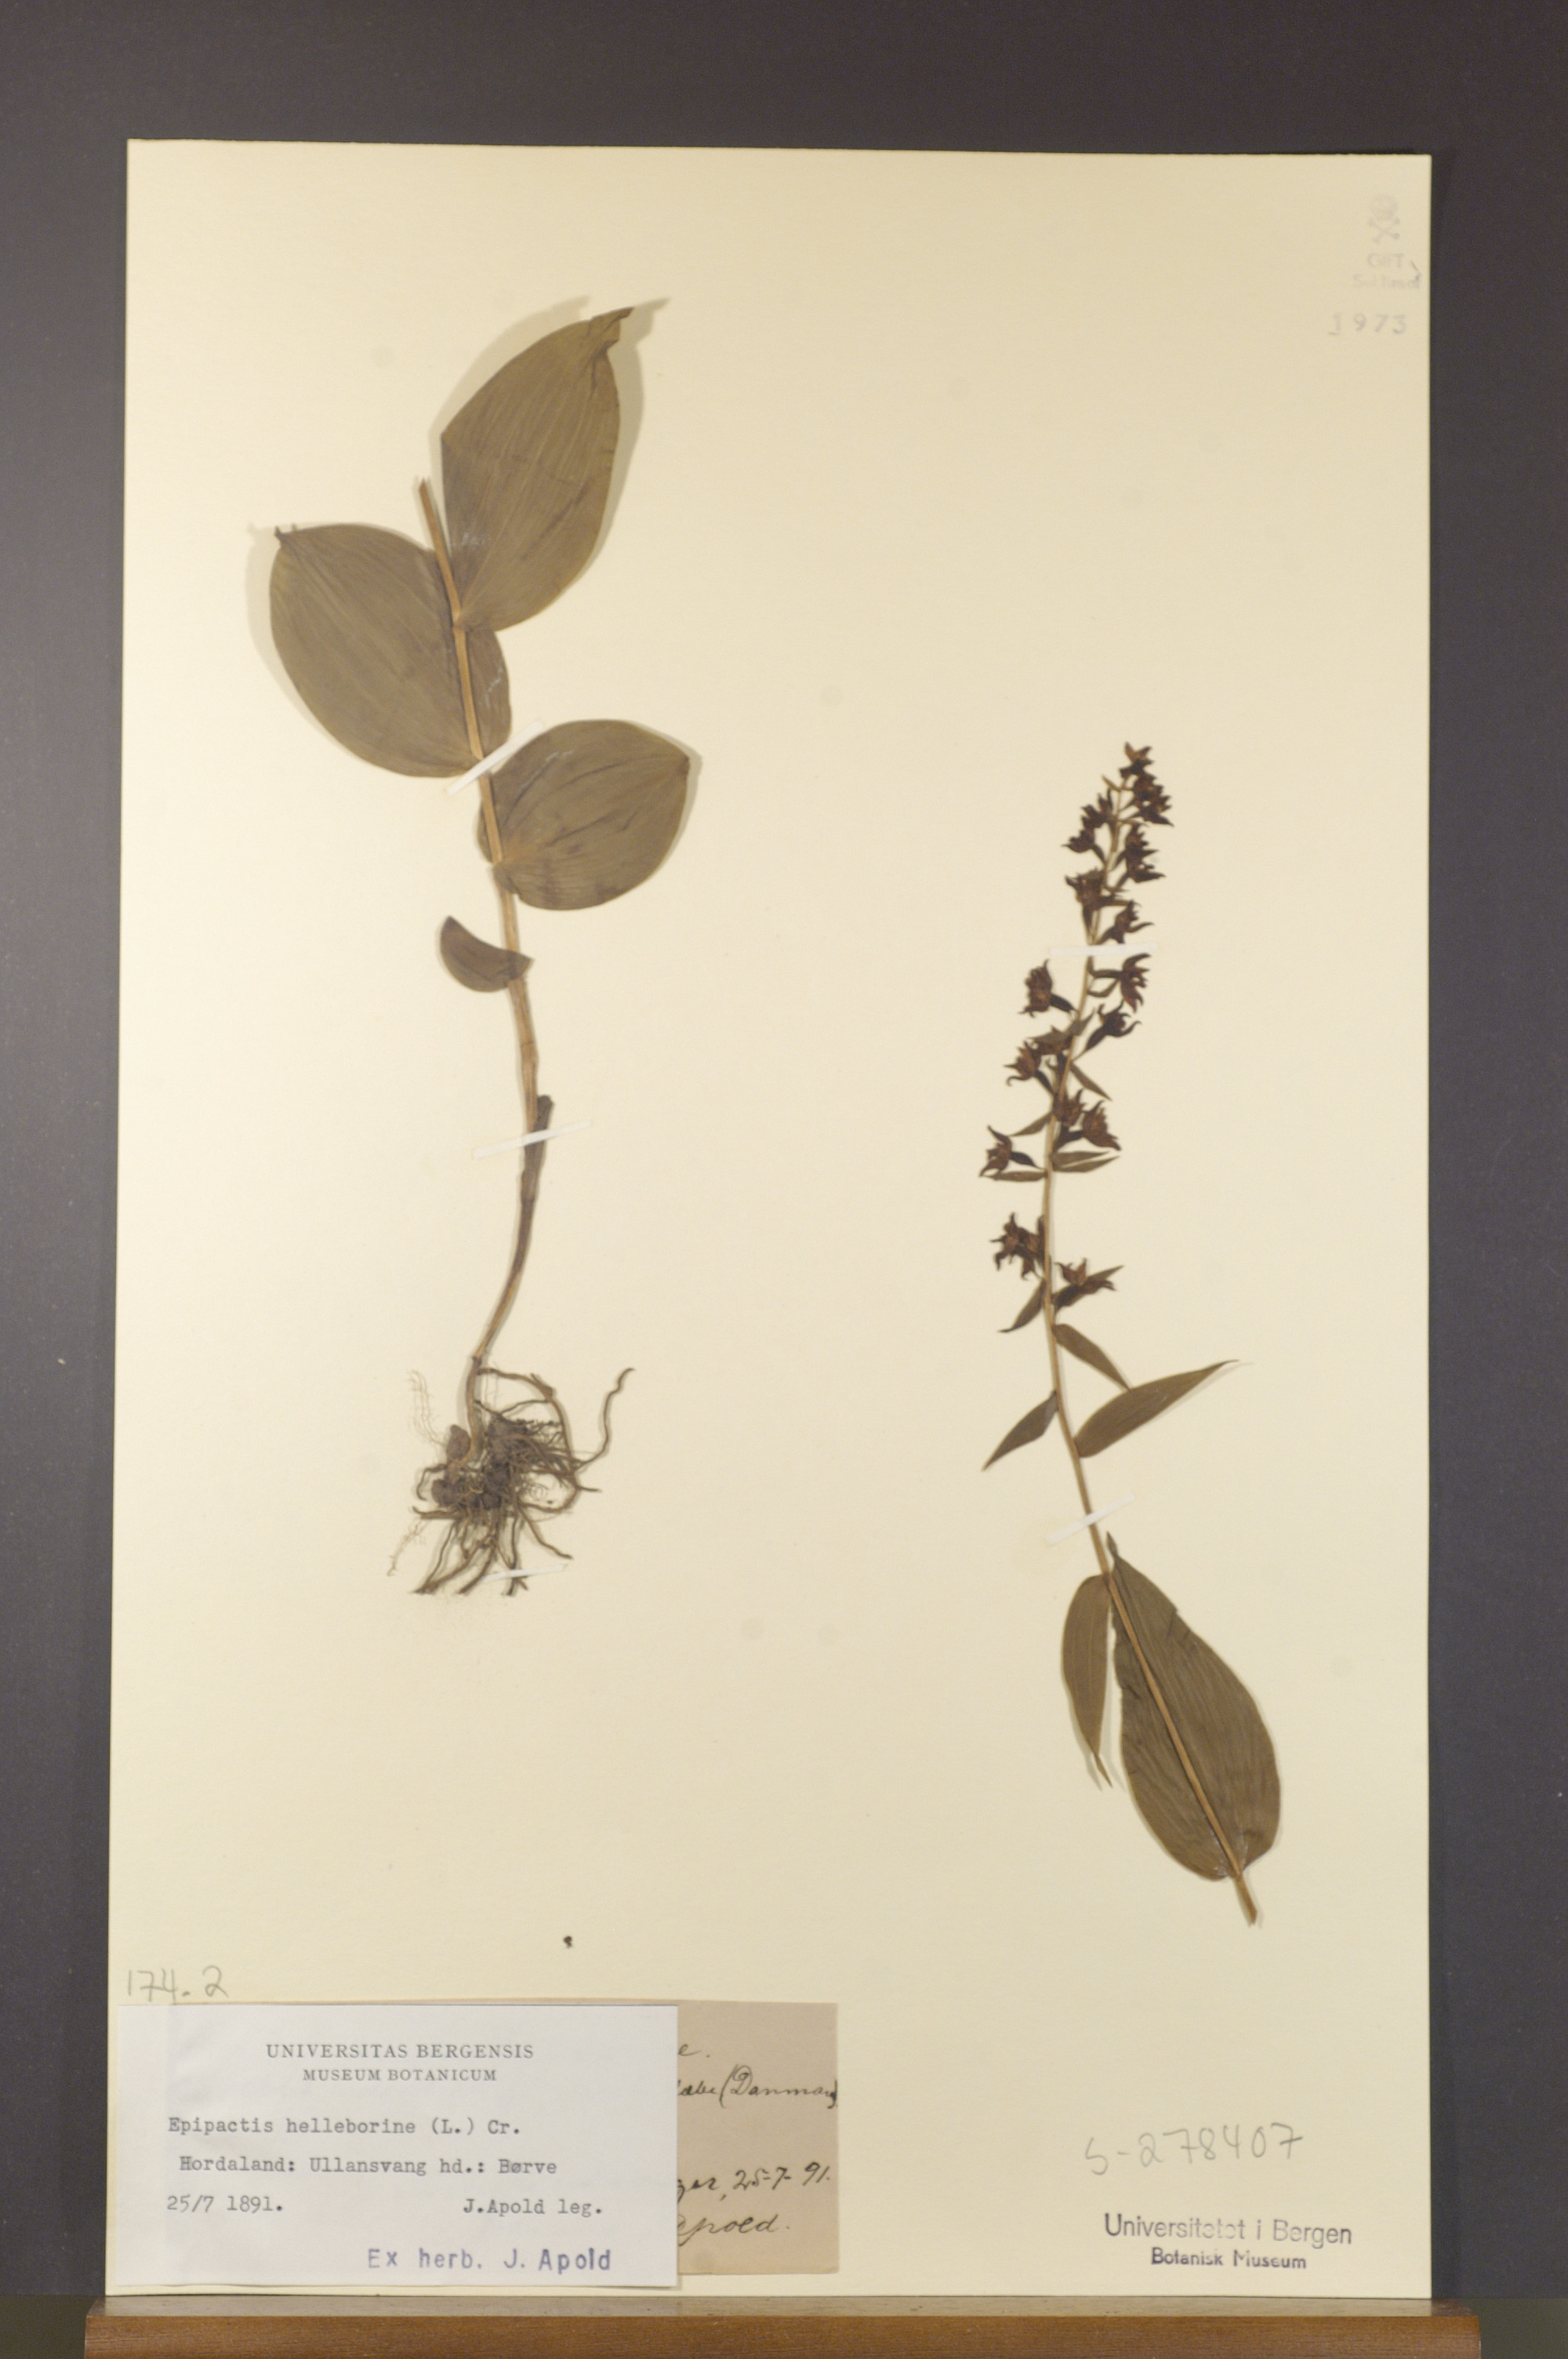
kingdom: Plantae
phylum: Tracheophyta
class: Liliopsida
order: Asparagales
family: Orchidaceae
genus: Epipactis
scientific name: Epipactis helleborine
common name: Broad-leaved helleborine
